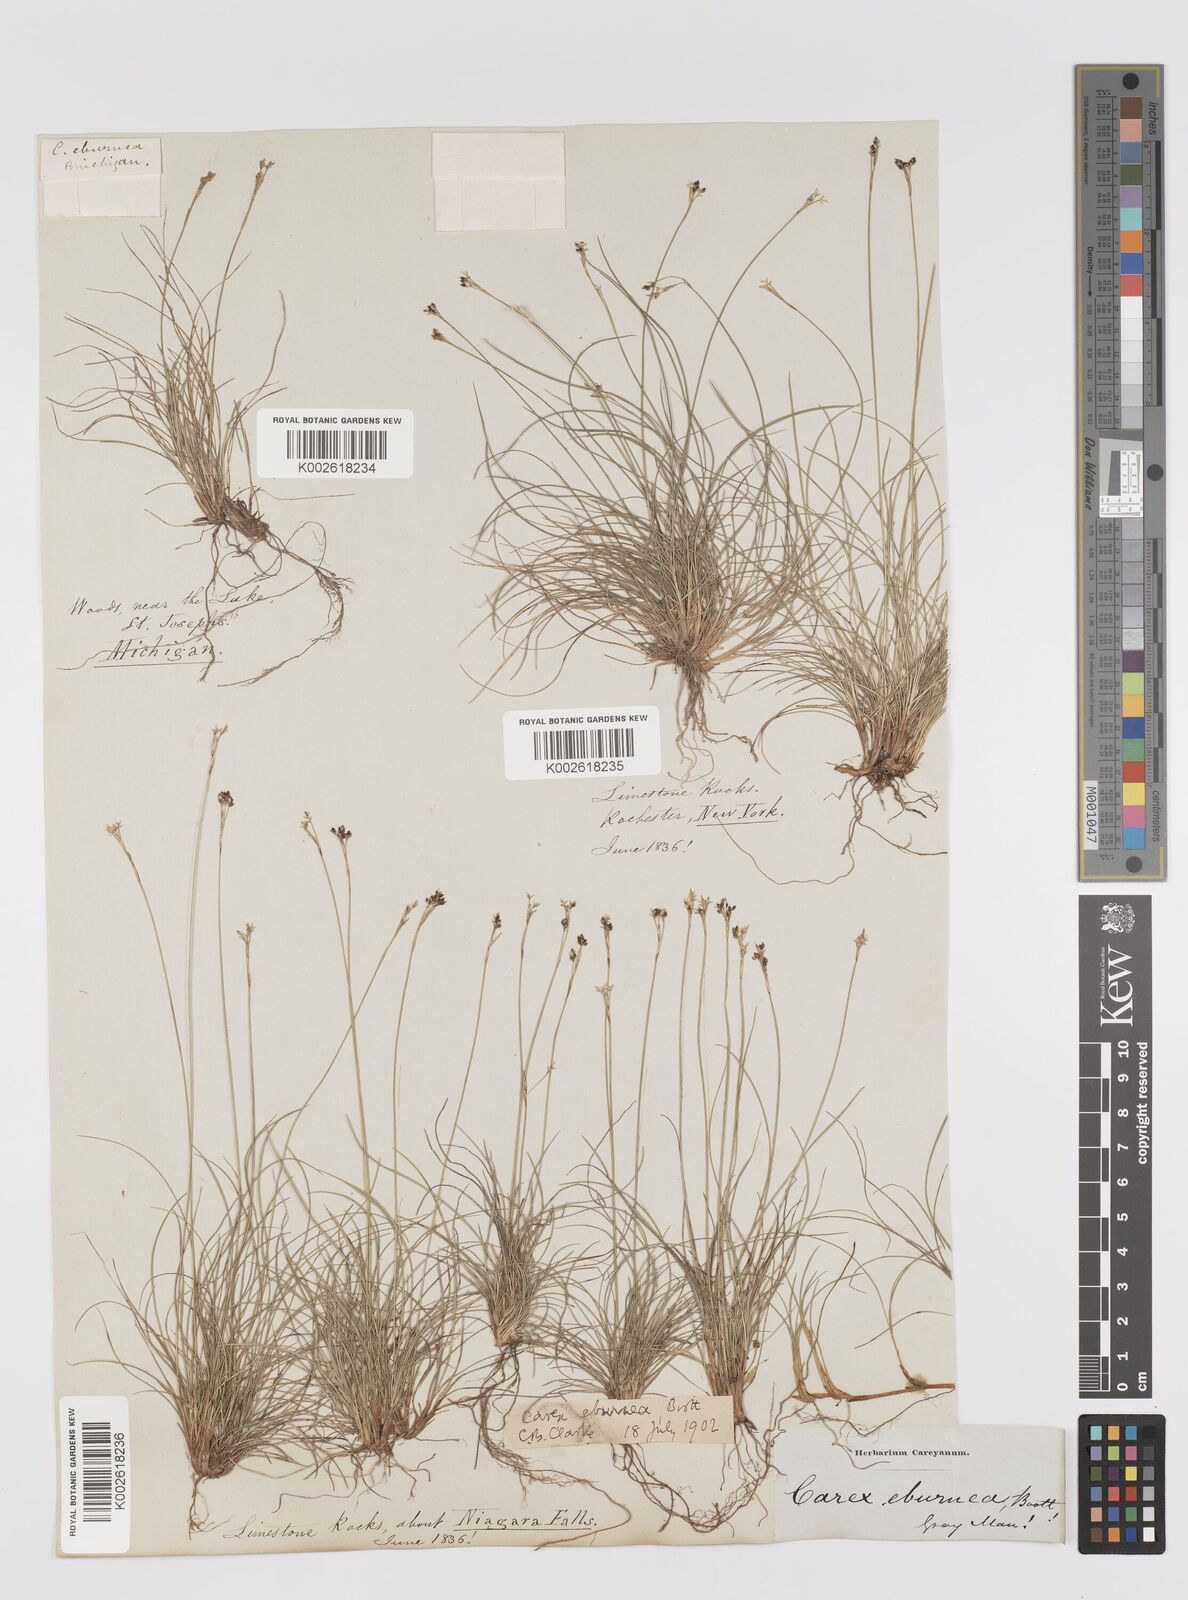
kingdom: Plantae
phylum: Tracheophyta
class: Liliopsida
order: Poales
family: Cyperaceae
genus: Carex
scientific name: Carex eburnea
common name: Bristle-leaved sedge
